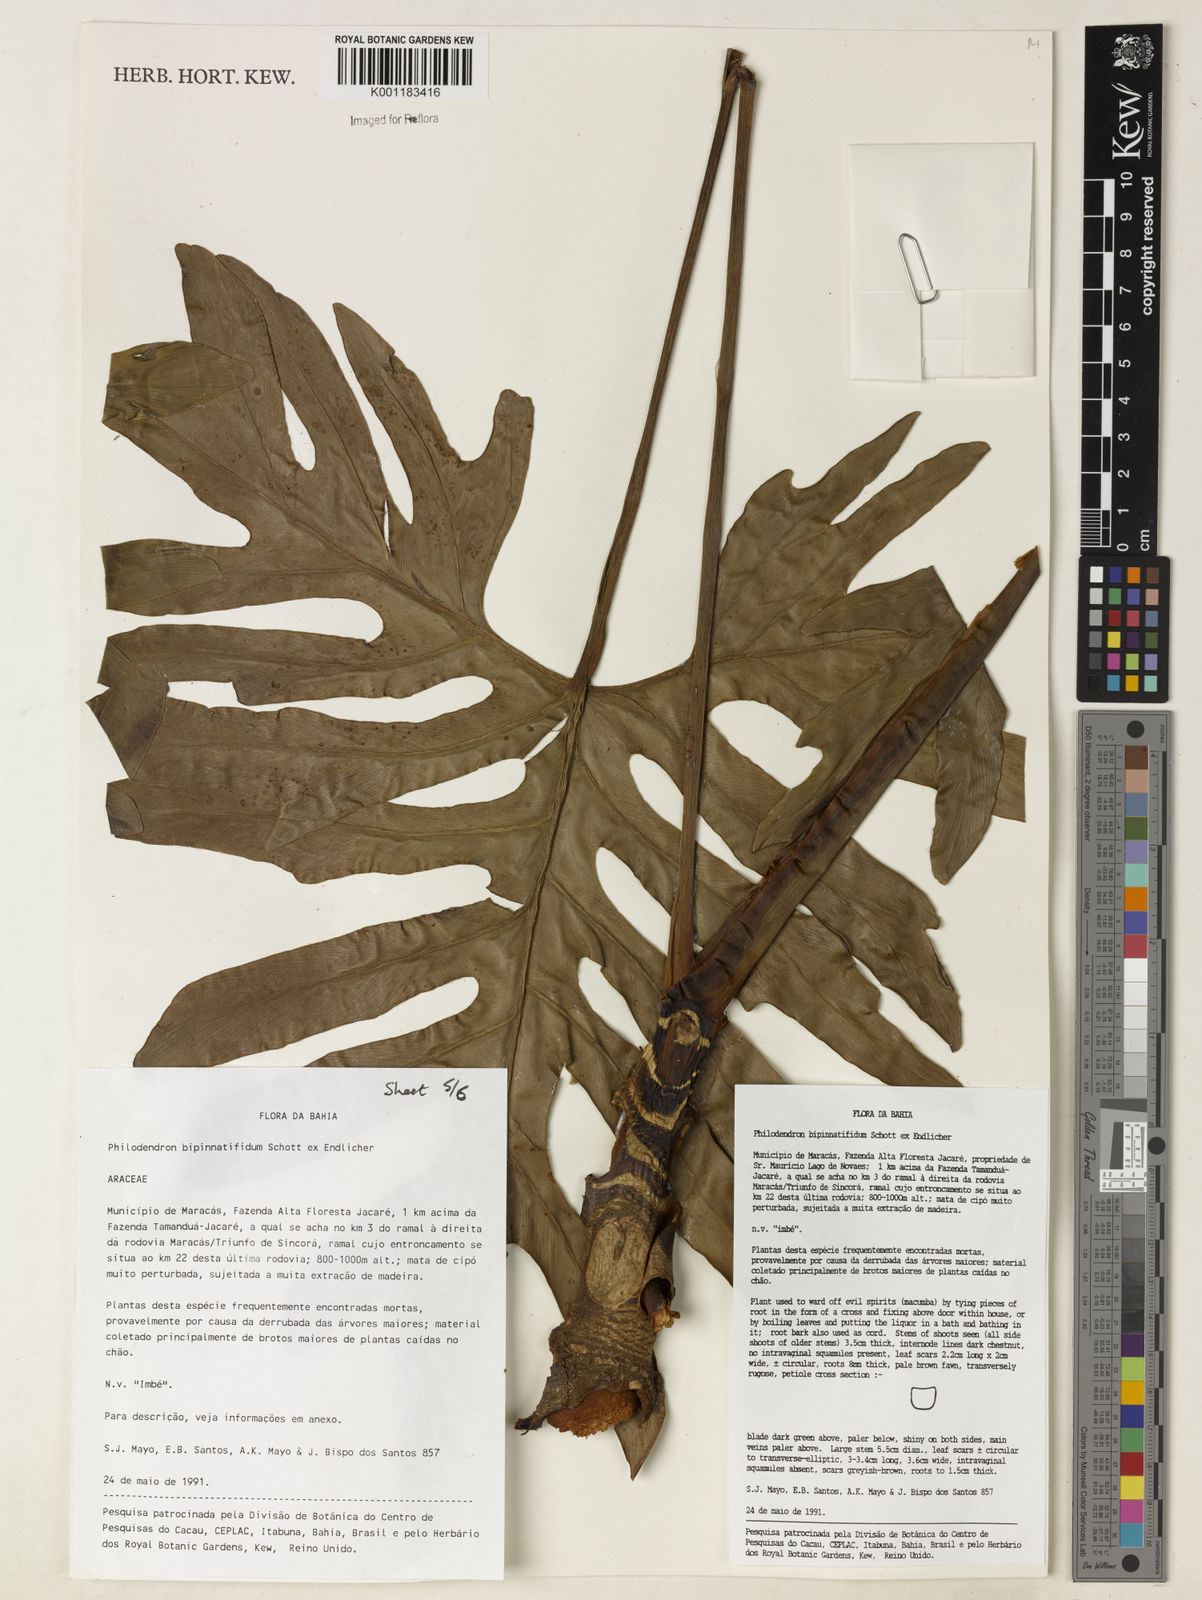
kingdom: Plantae
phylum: Tracheophyta
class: Liliopsida
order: Alismatales
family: Araceae
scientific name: Araceae
